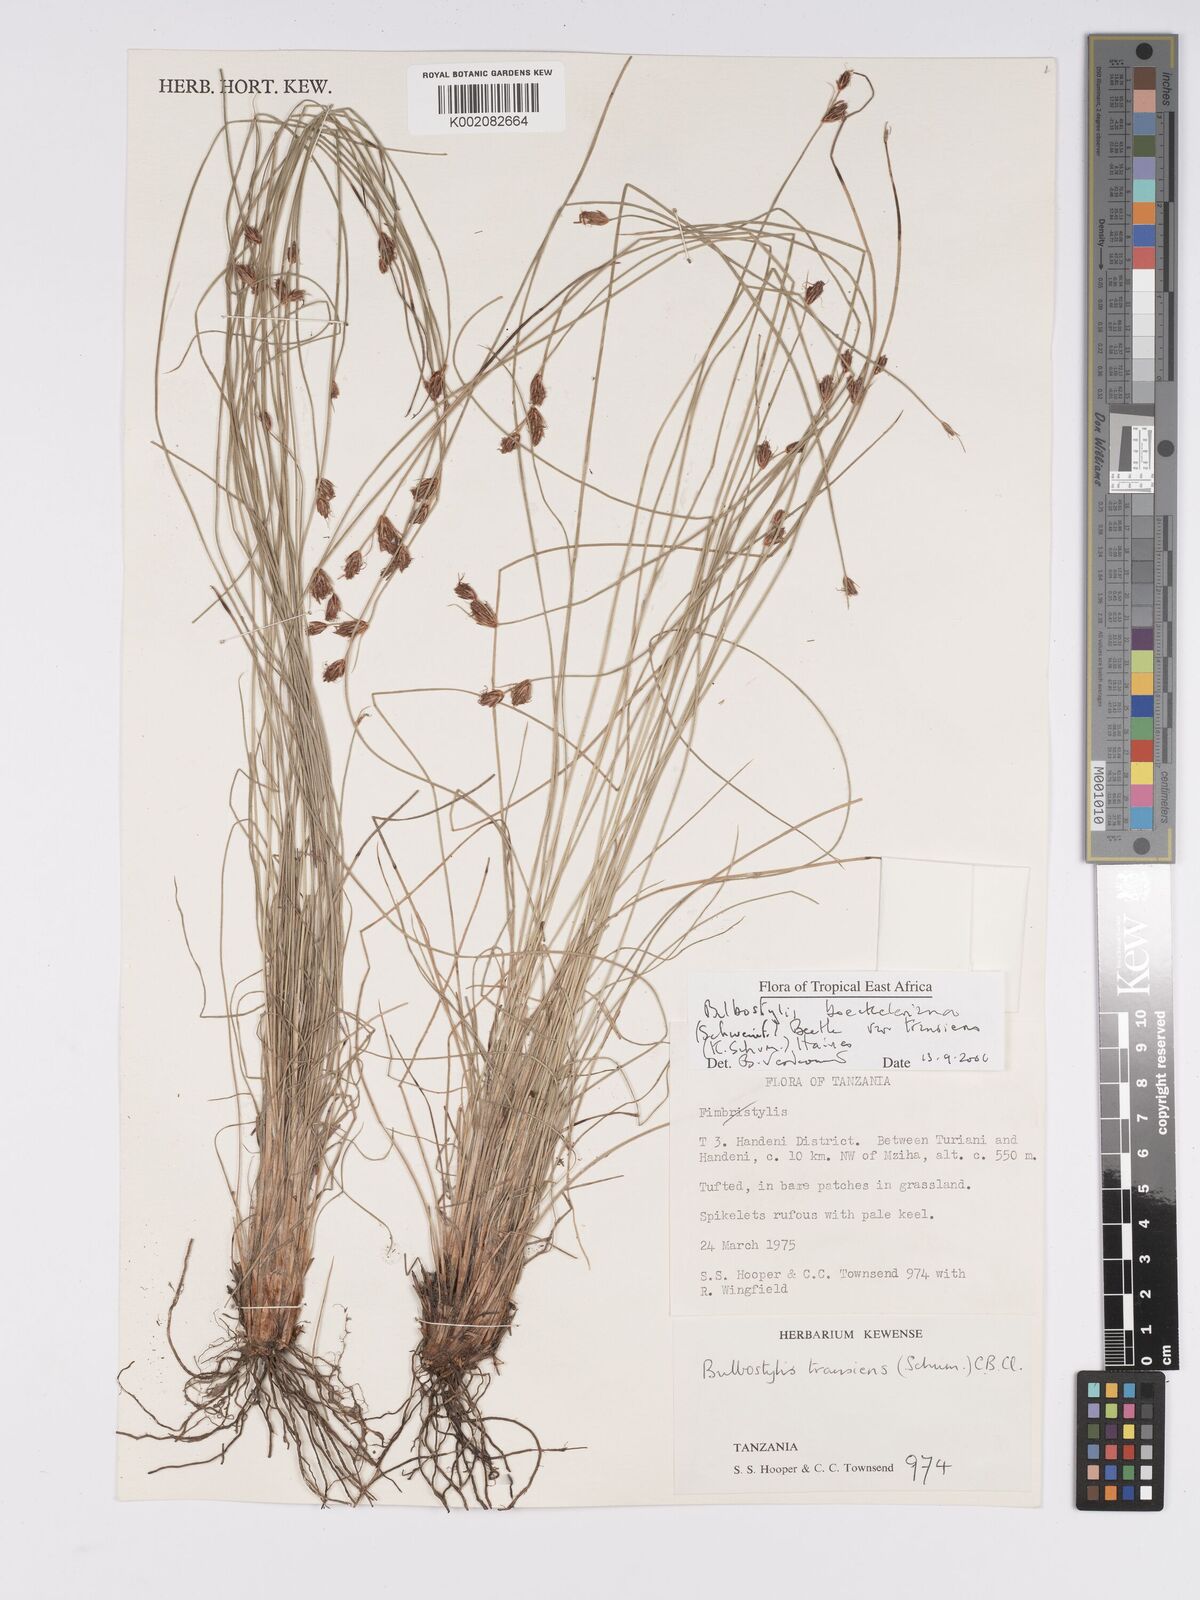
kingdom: Plantae
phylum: Tracheophyta
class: Liliopsida
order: Poales
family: Cyperaceae
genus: Bulbostylis
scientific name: Bulbostylis boeckeleriana
